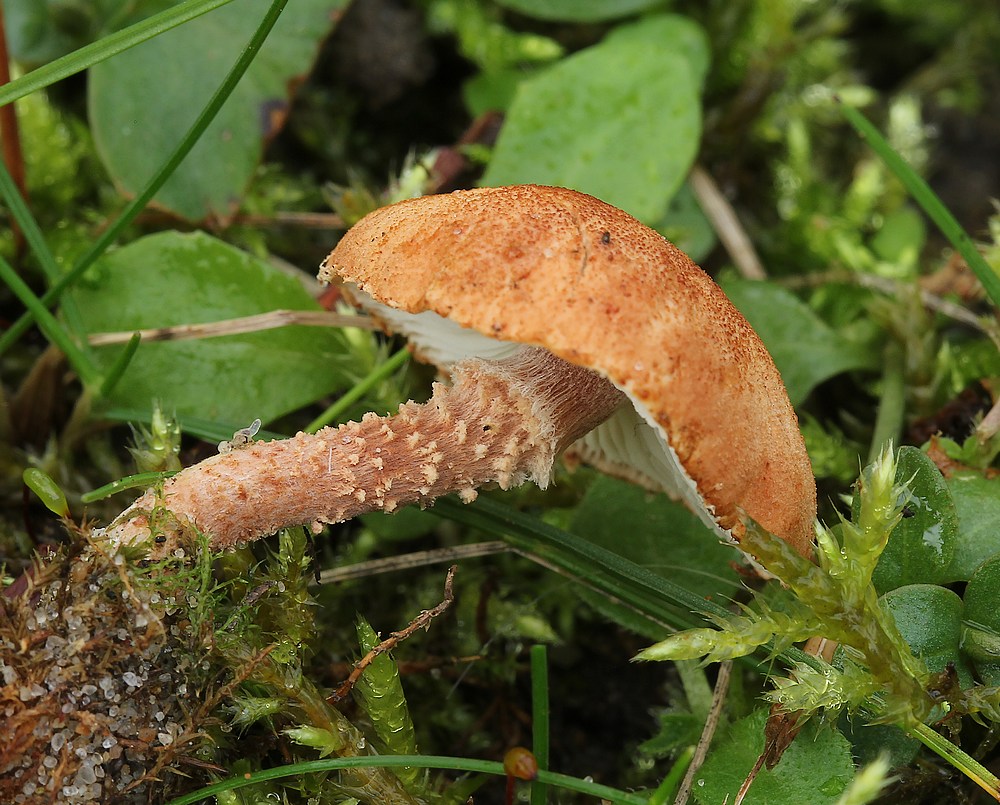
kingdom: Fungi
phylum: Basidiomycota
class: Agaricomycetes
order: Agaricales
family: Agaricaceae
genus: Cystodermella
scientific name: Cystodermella granulosa
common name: kliddet grynhat
